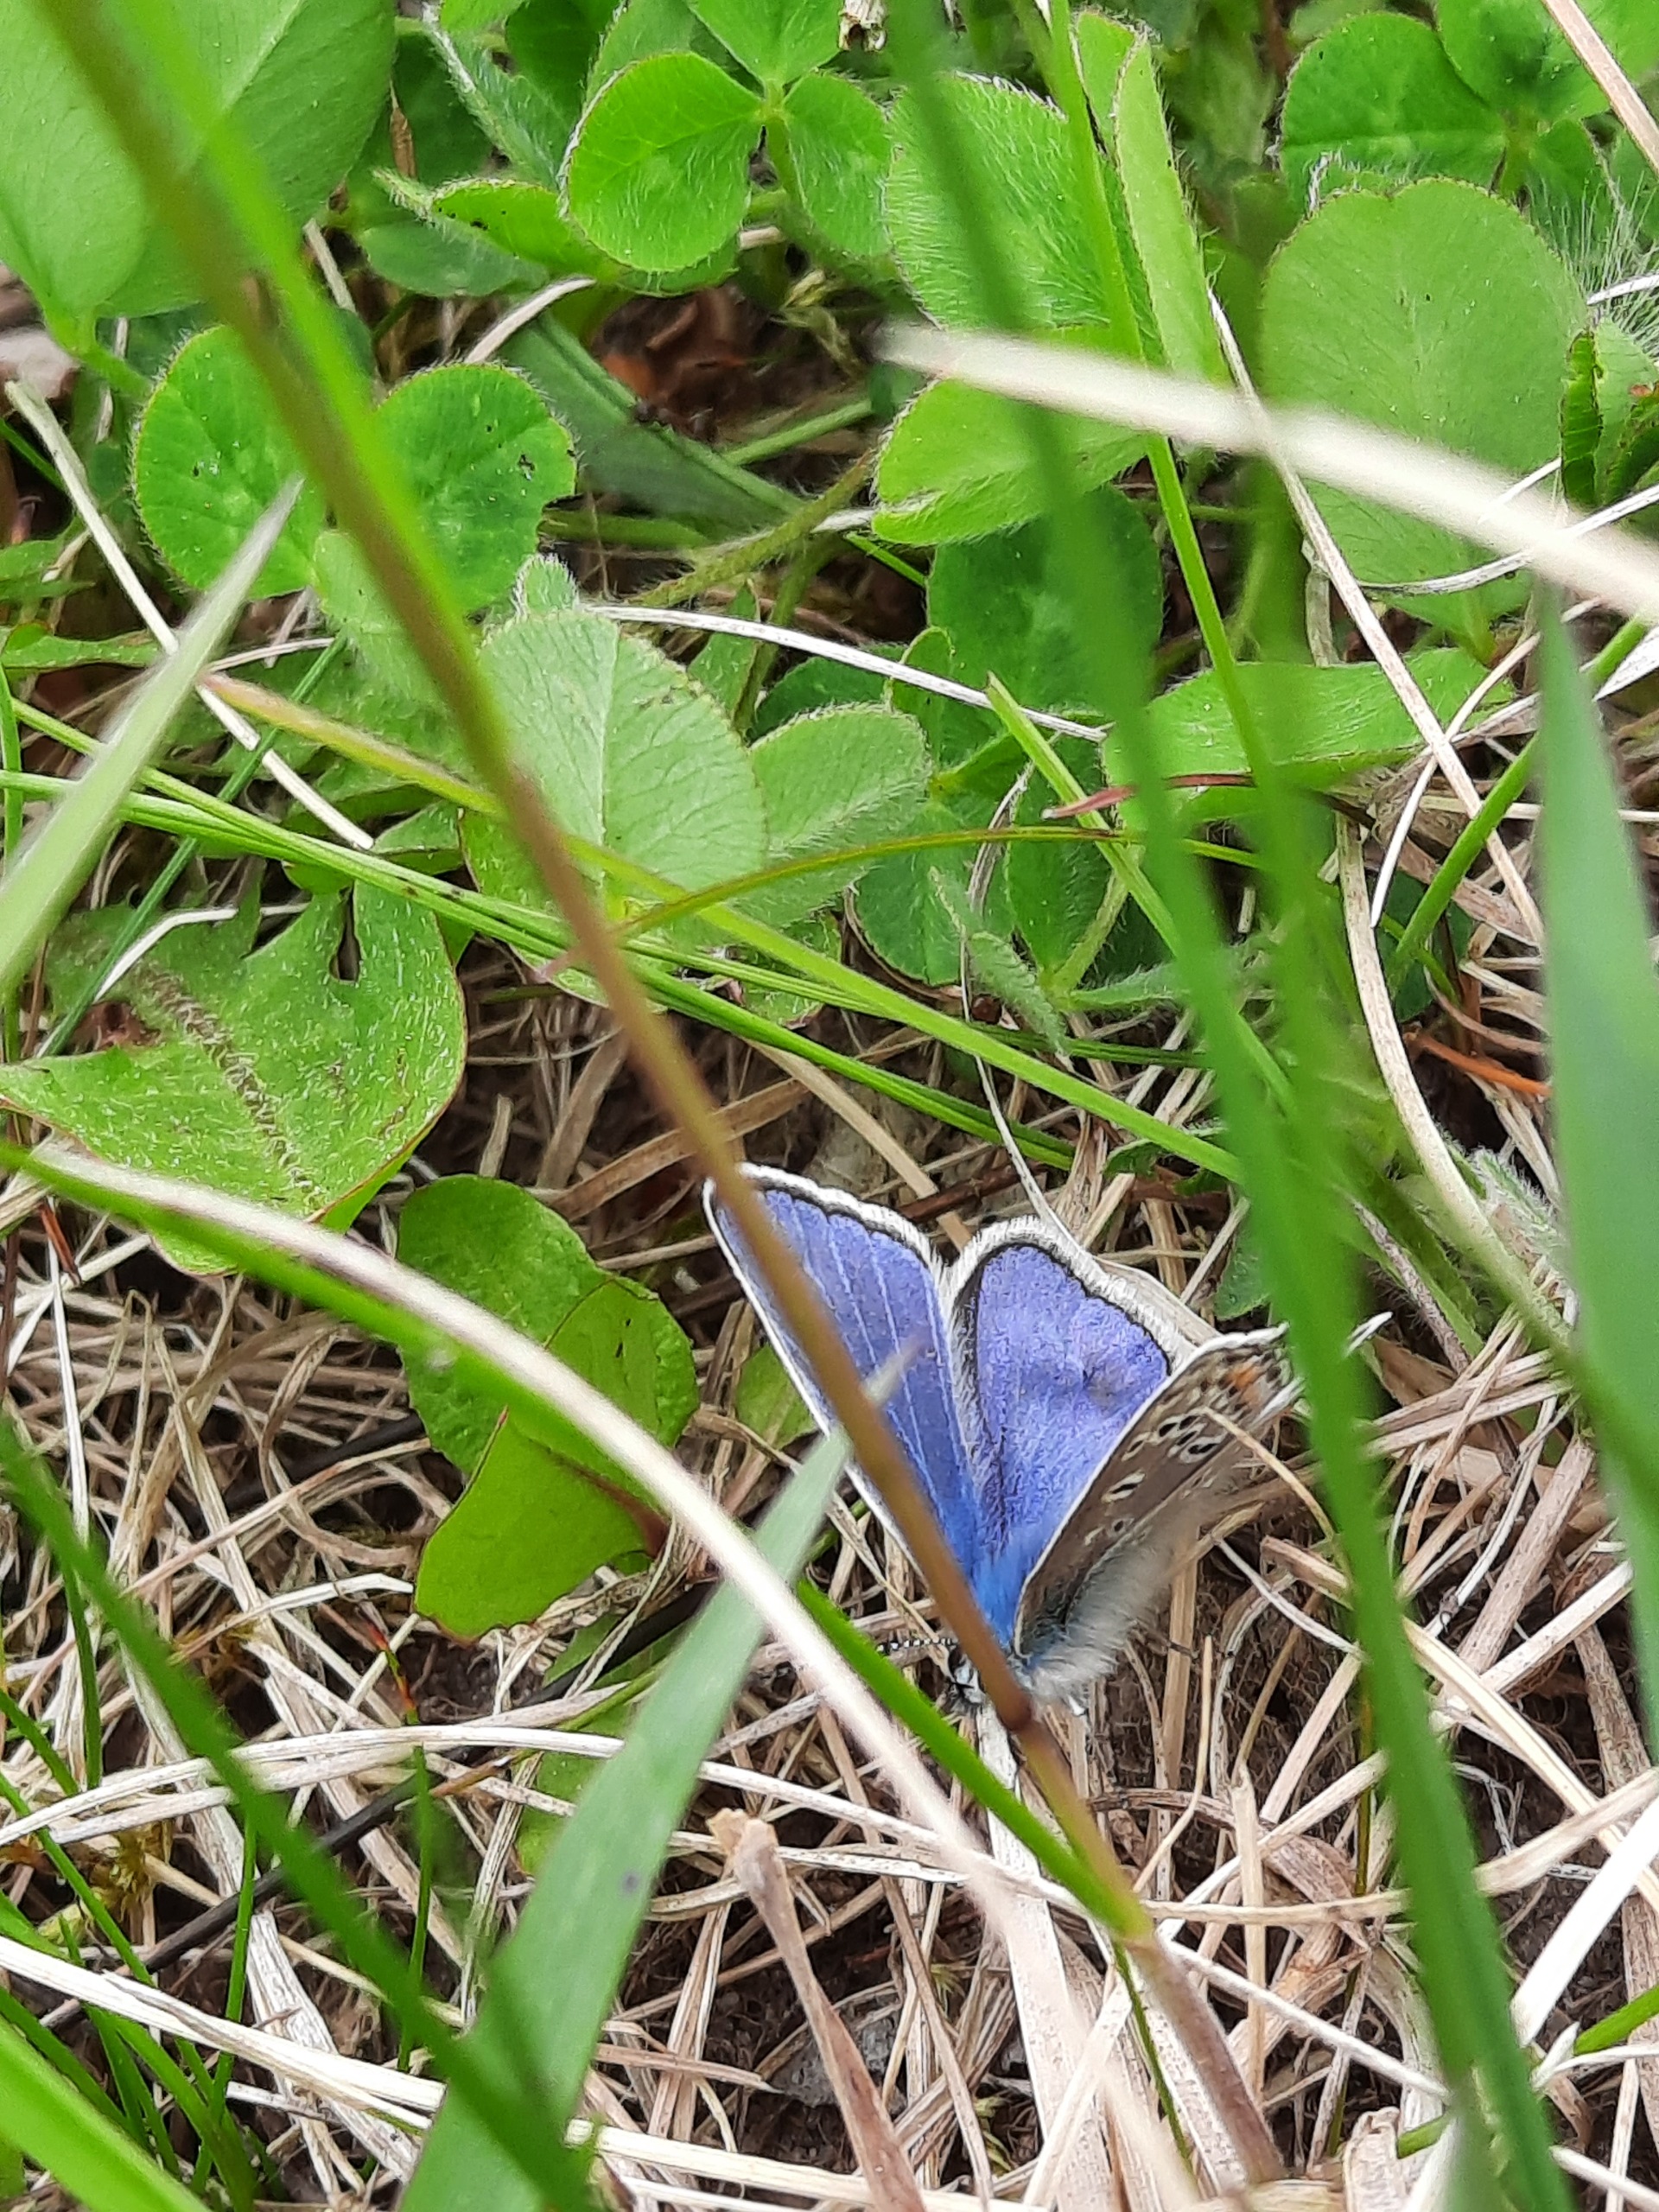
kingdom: Animalia
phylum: Arthropoda
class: Insecta
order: Lepidoptera
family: Lycaenidae
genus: Polyommatus
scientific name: Polyommatus icarus
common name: Almindelig blåfugl
